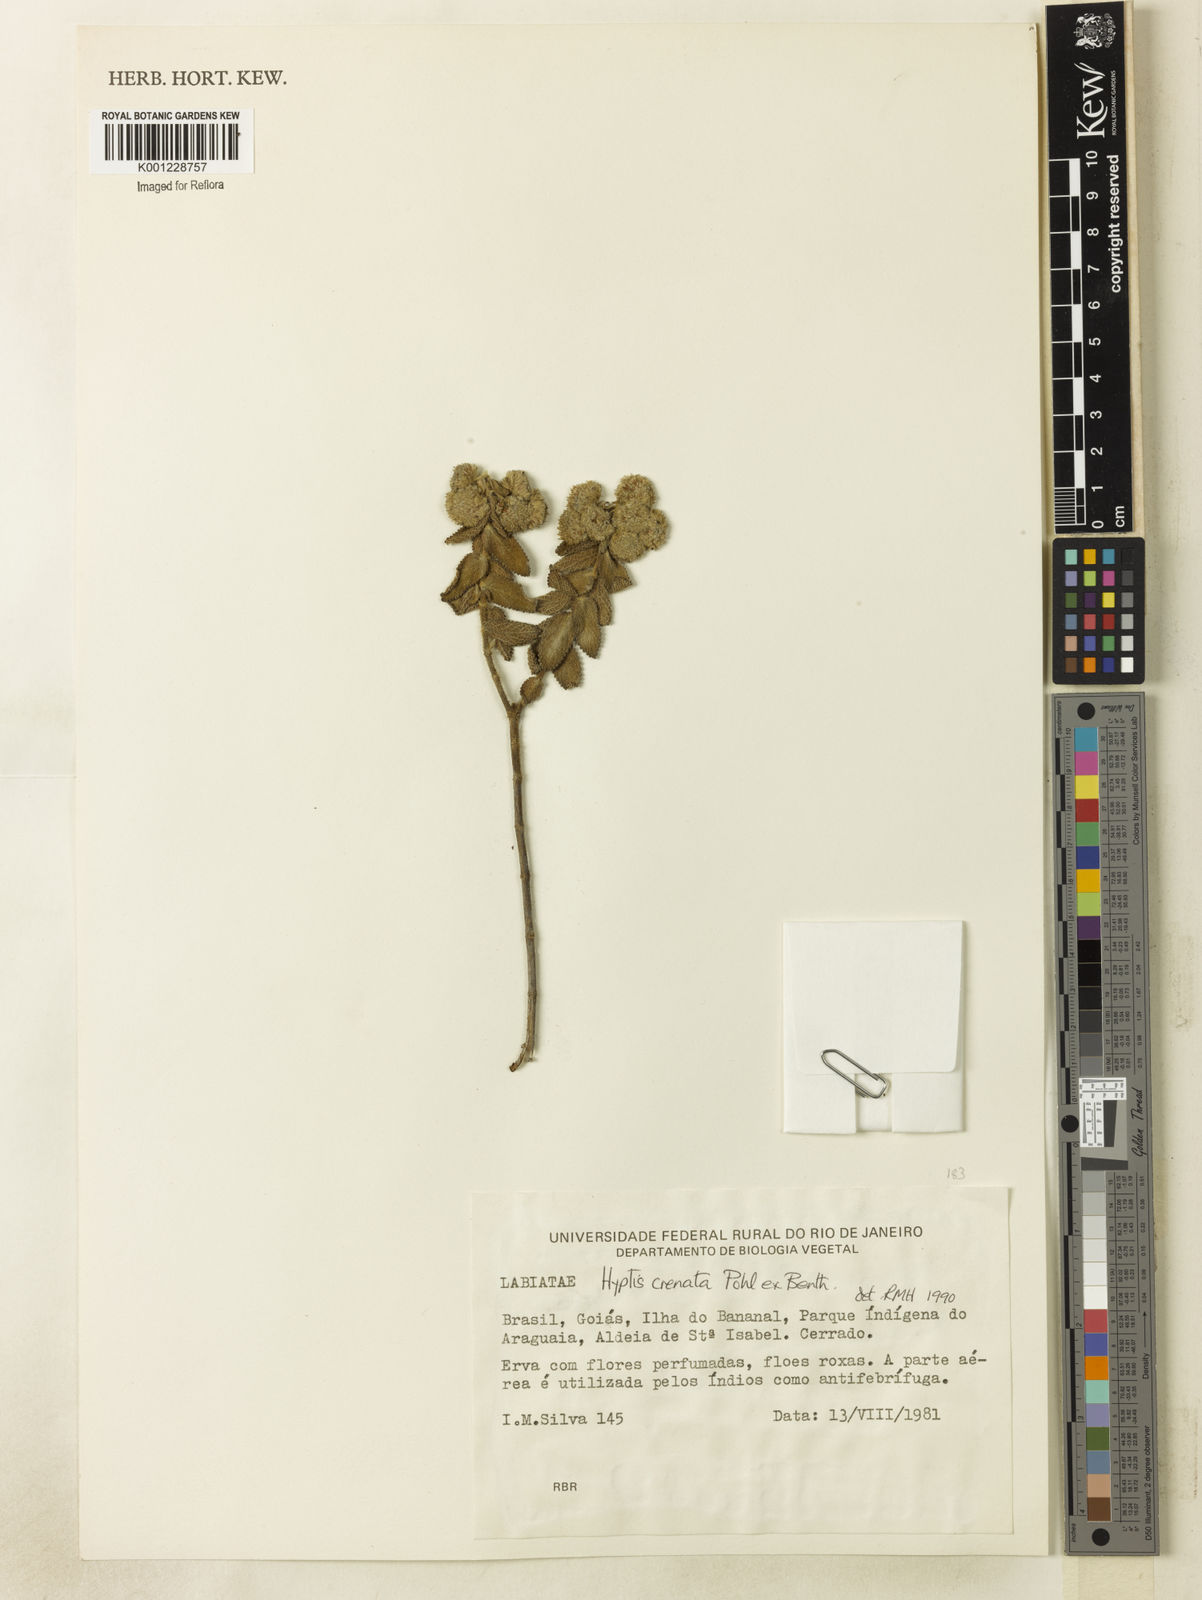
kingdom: Plantae
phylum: Tracheophyta
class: Magnoliopsida
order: Lamiales
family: Lamiaceae
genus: Hyptis
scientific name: Hyptis crenata
